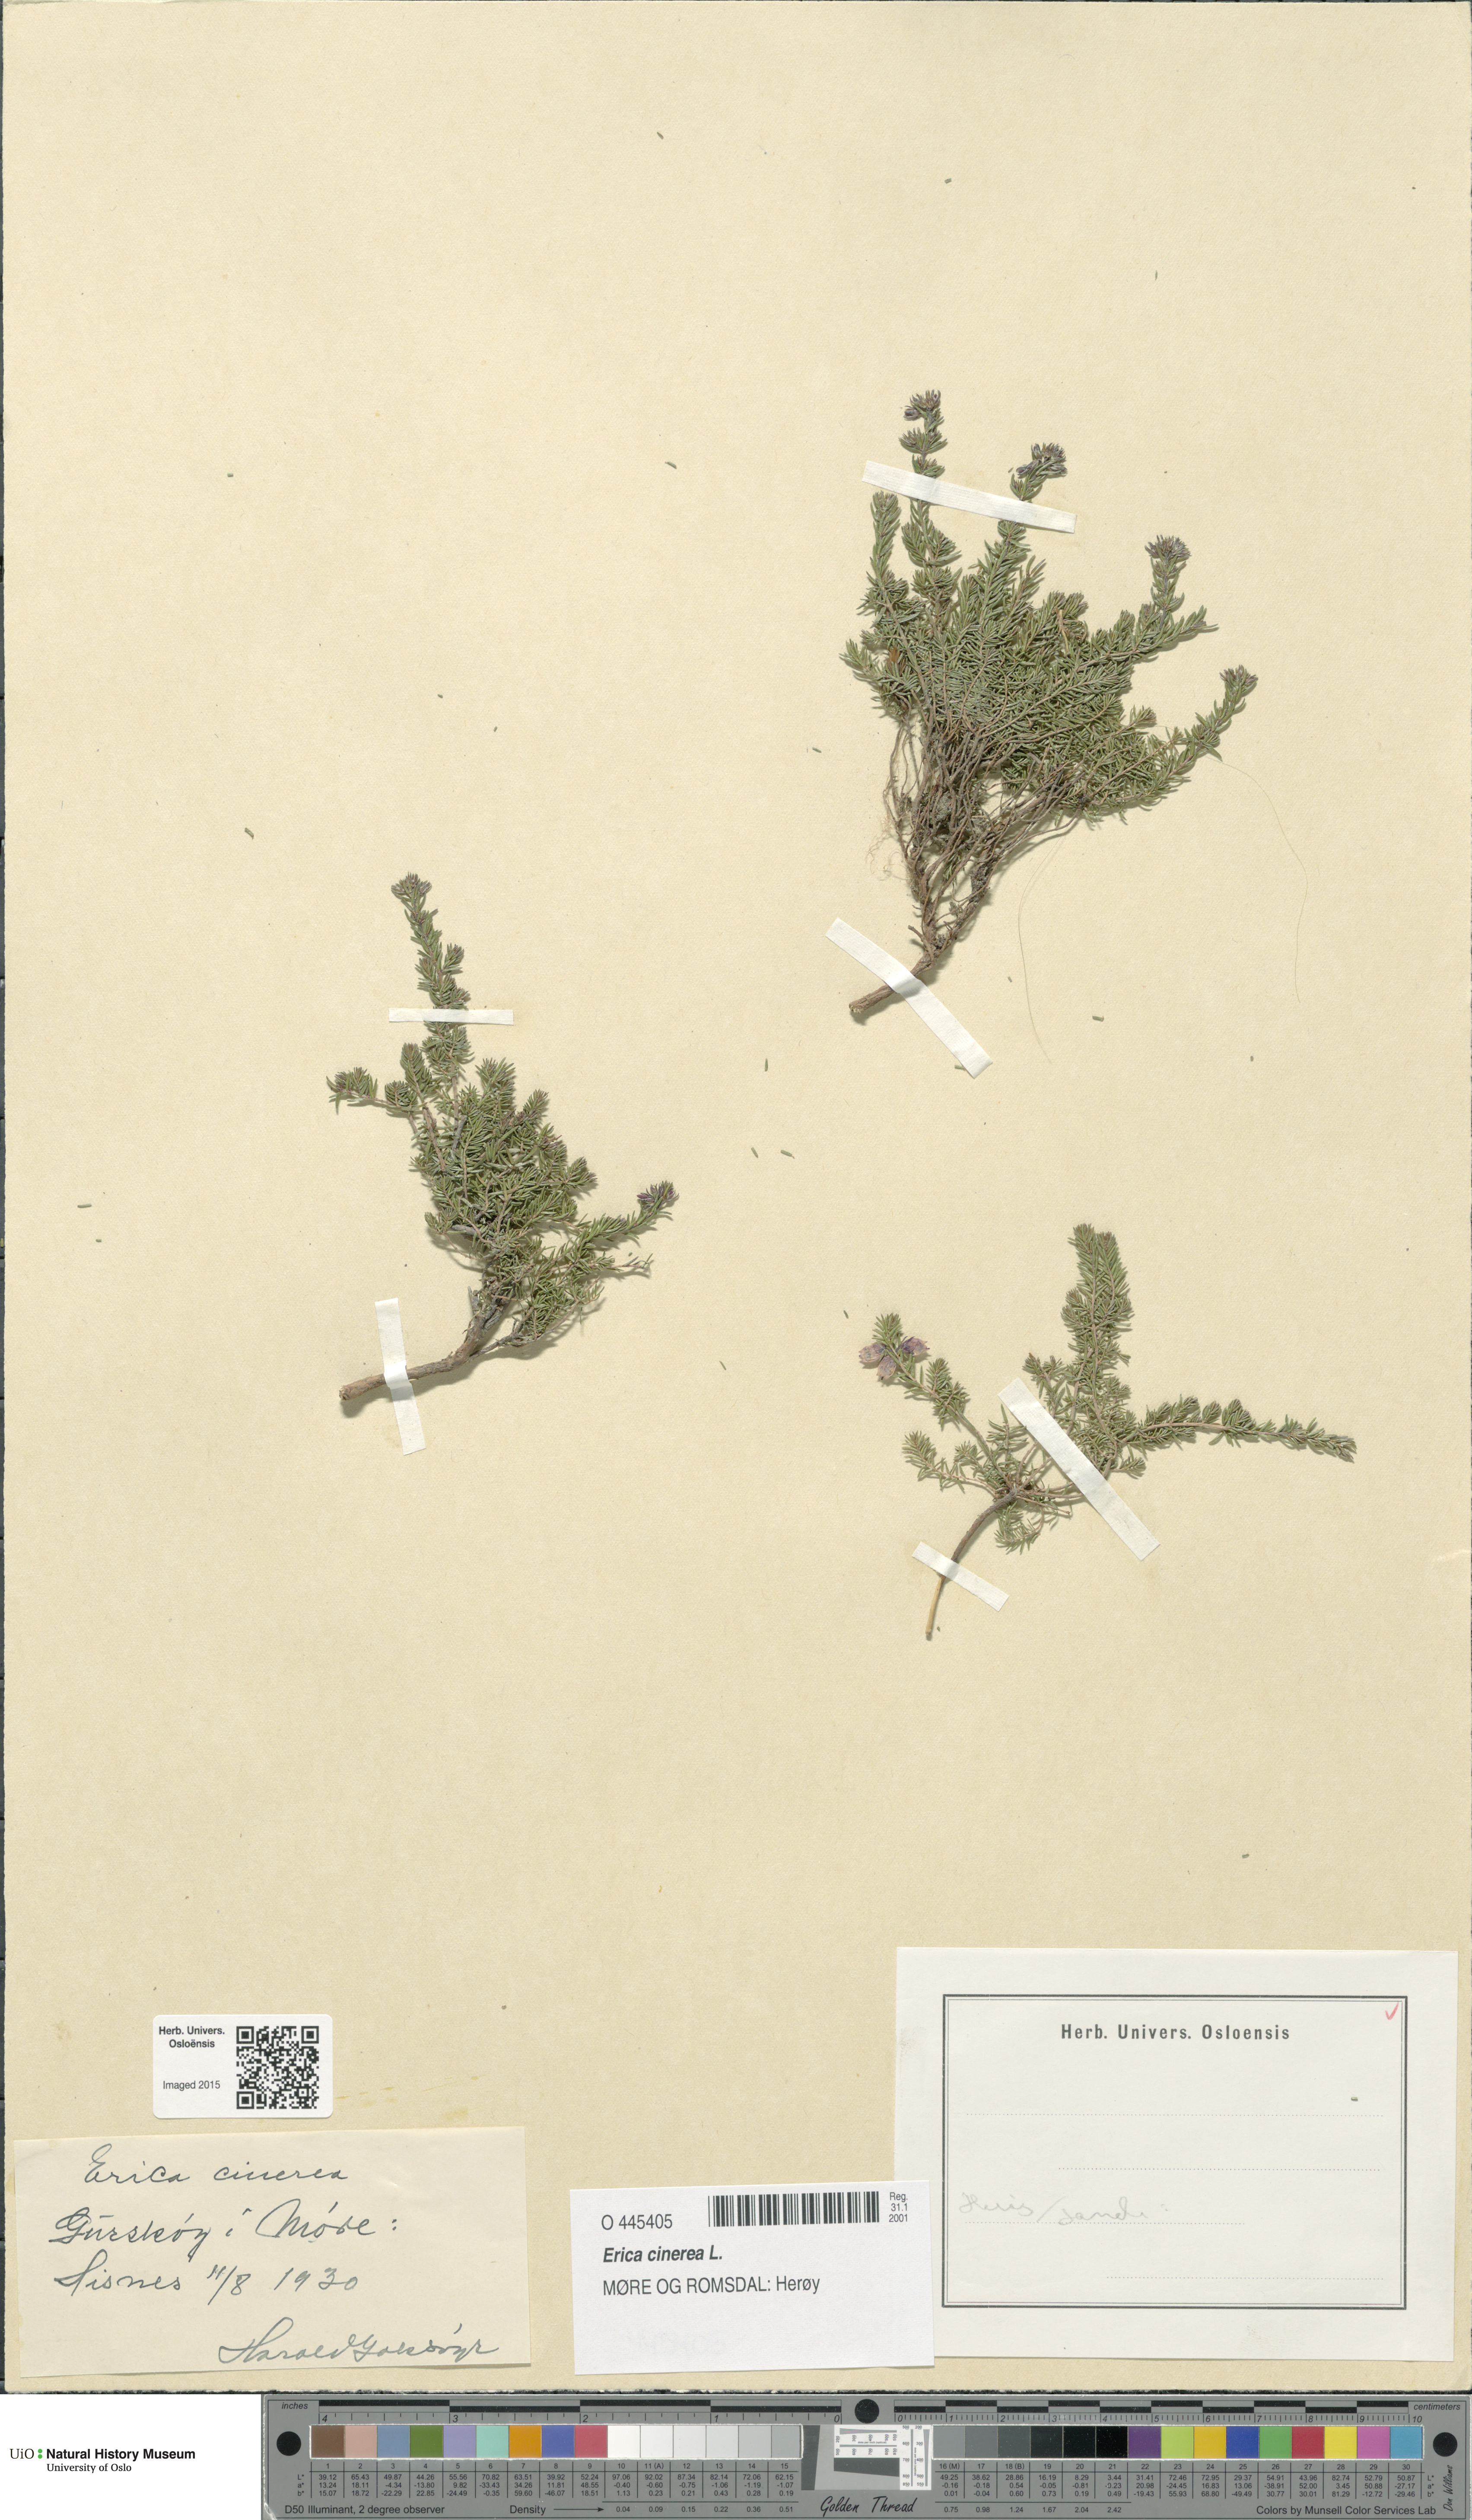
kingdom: Plantae
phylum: Tracheophyta
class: Magnoliopsida
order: Ericales
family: Ericaceae
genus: Erica
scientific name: Erica cinerea
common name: Bell heather
